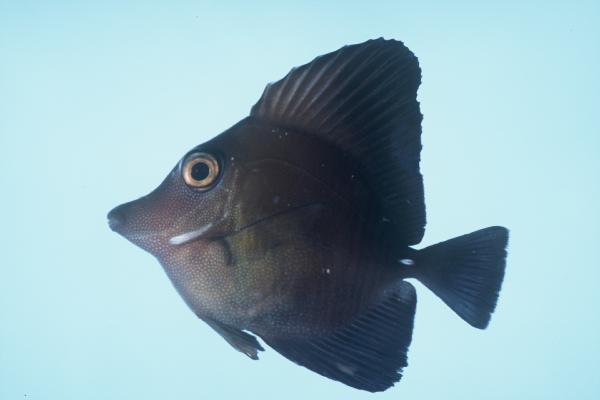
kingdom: Animalia
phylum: Chordata
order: Perciformes
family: Acanthuridae
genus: Zebrasoma
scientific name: Zebrasoma scopas
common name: Twotone tang
